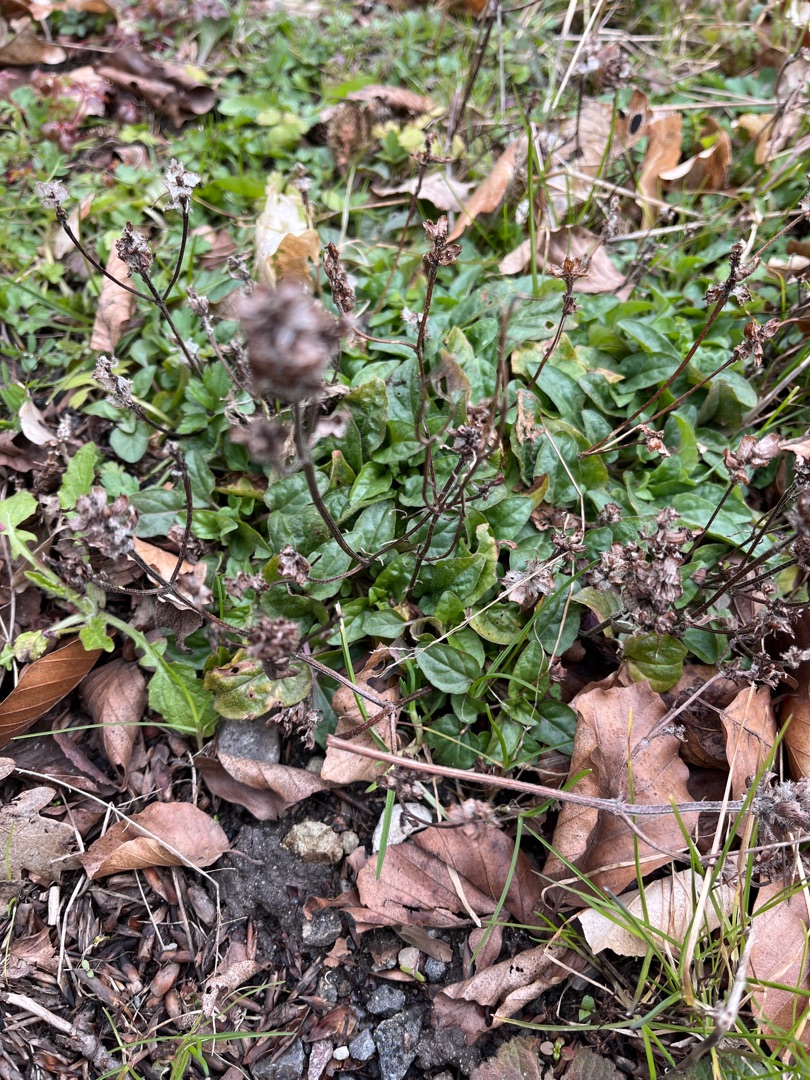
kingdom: Plantae
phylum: Tracheophyta
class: Magnoliopsida
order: Lamiales
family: Lamiaceae
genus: Prunella
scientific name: Prunella vulgaris
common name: Almindelig brunelle
